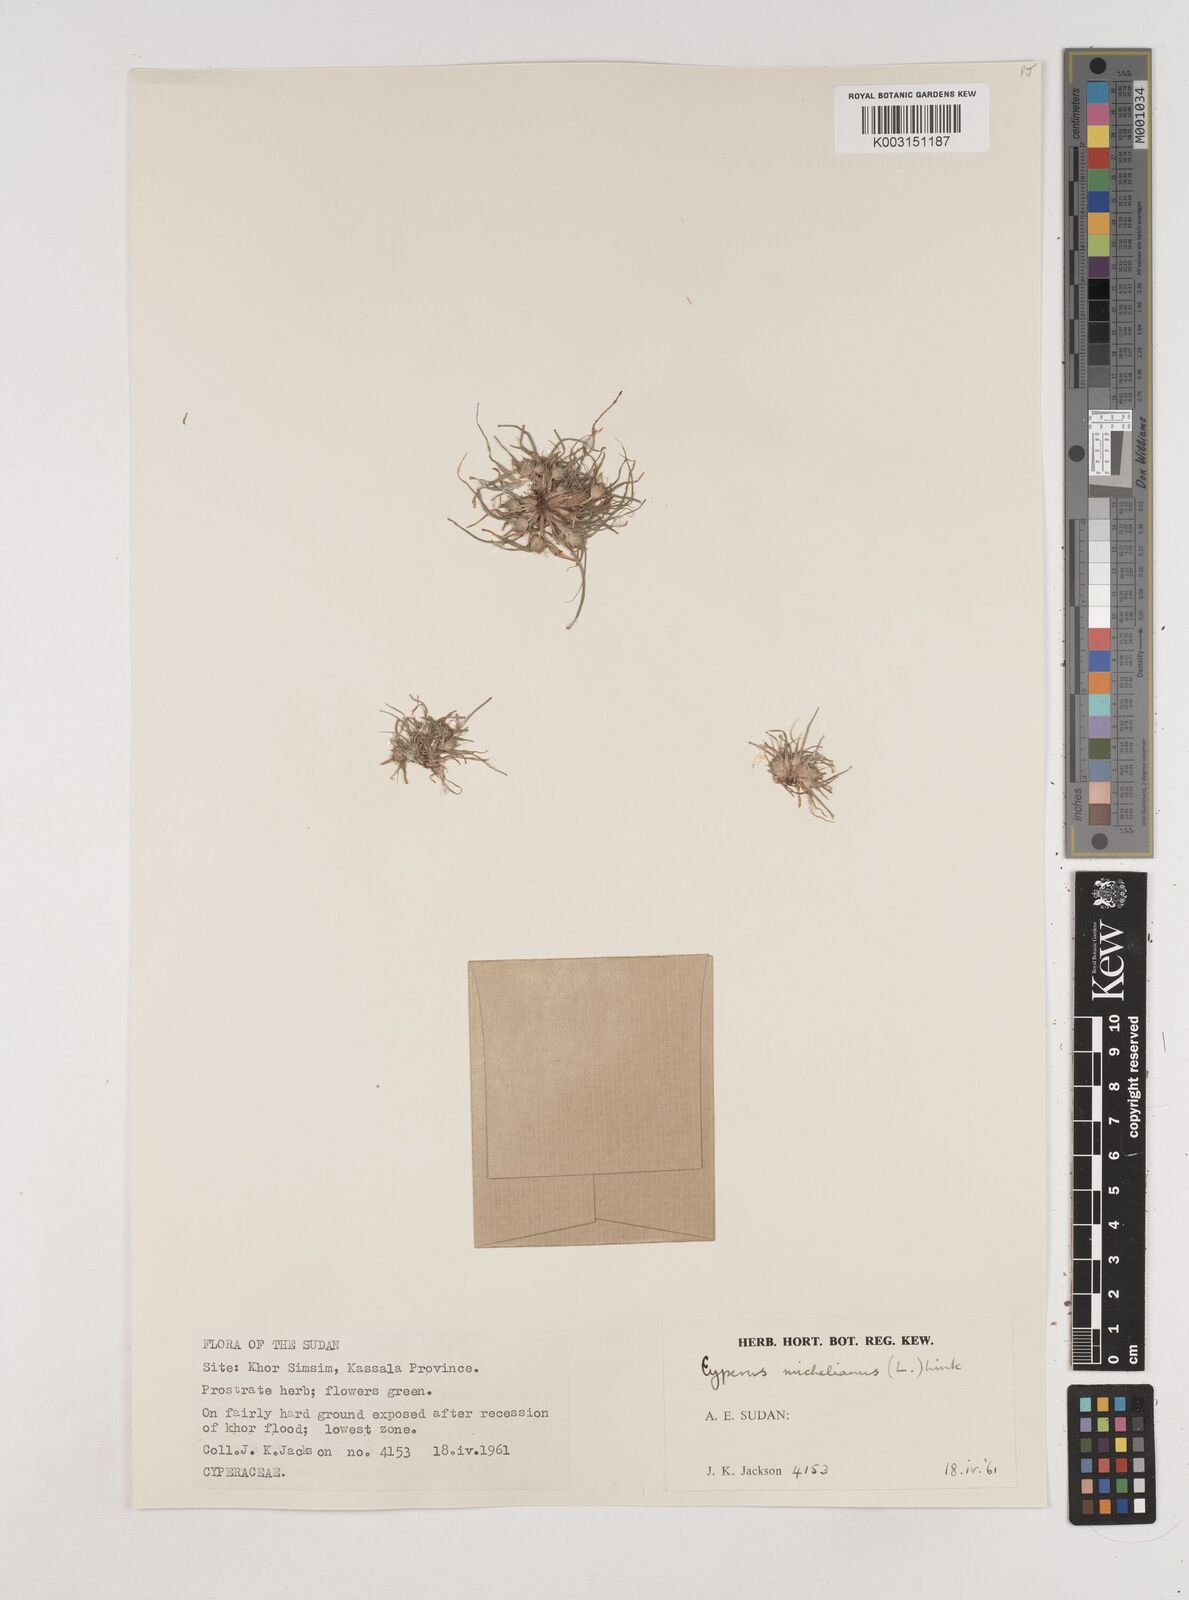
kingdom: Plantae
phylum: Tracheophyta
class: Liliopsida
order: Poales
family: Cyperaceae
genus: Cyperus
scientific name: Cyperus michelianus
